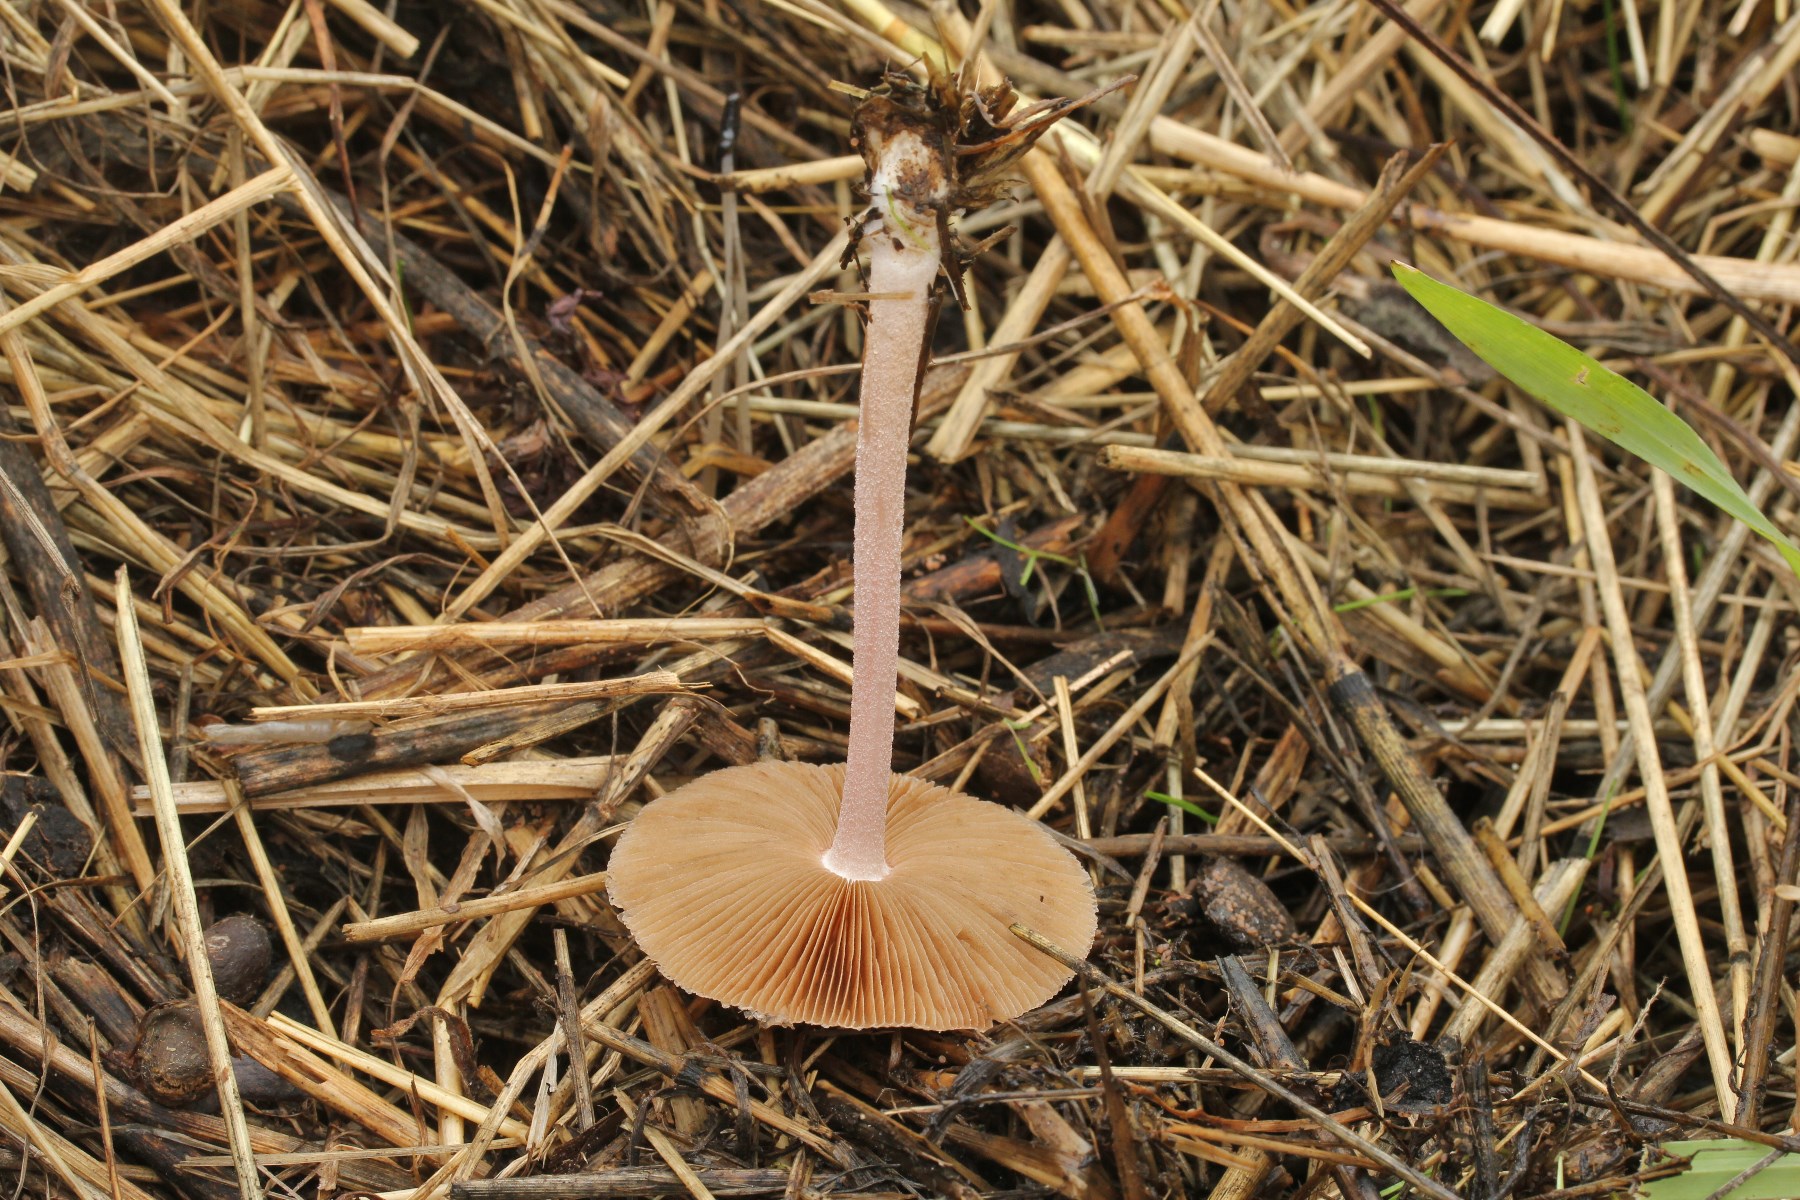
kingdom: Fungi
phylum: Basidiomycota
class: Agaricomycetes
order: Agaricales
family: Bolbitiaceae
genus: Bolbitius
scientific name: Bolbitius coprophilus
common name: rosa gulhat
